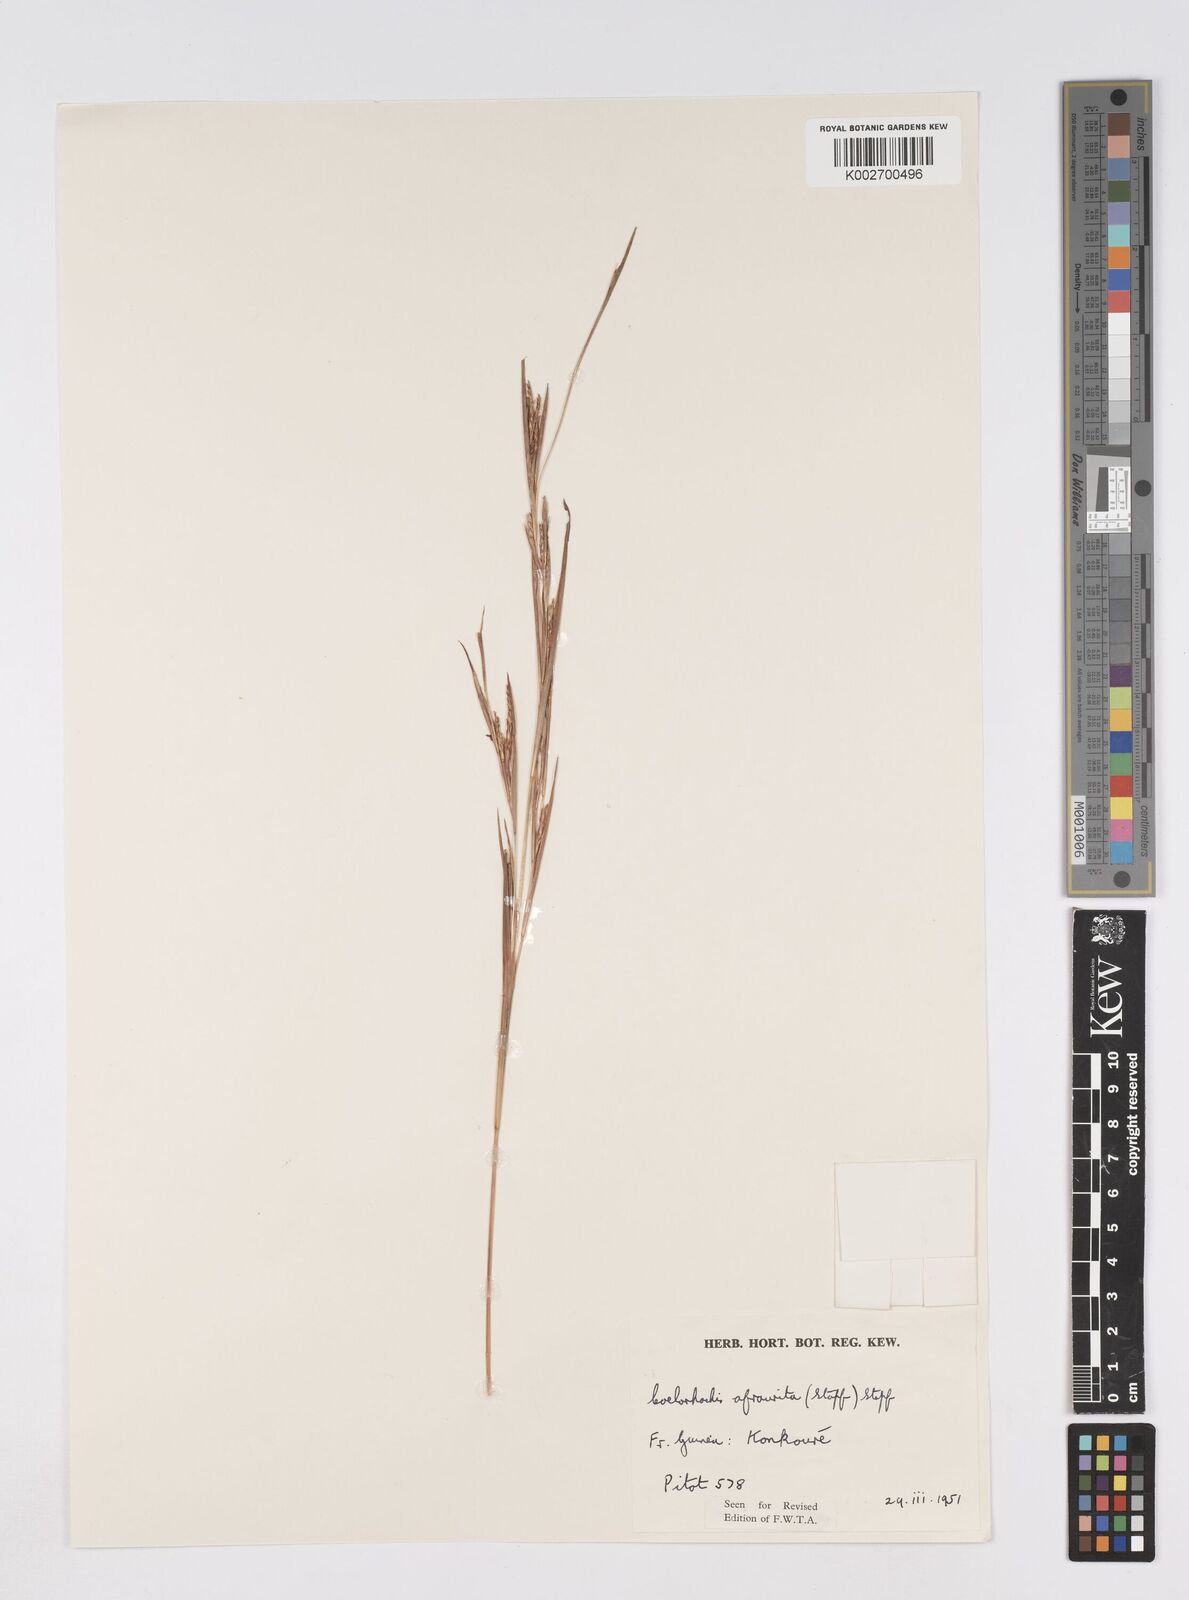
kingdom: Plantae
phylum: Tracheophyta
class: Liliopsida
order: Poales
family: Poaceae
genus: Rottboellia
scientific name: Rottboellia afraurita
